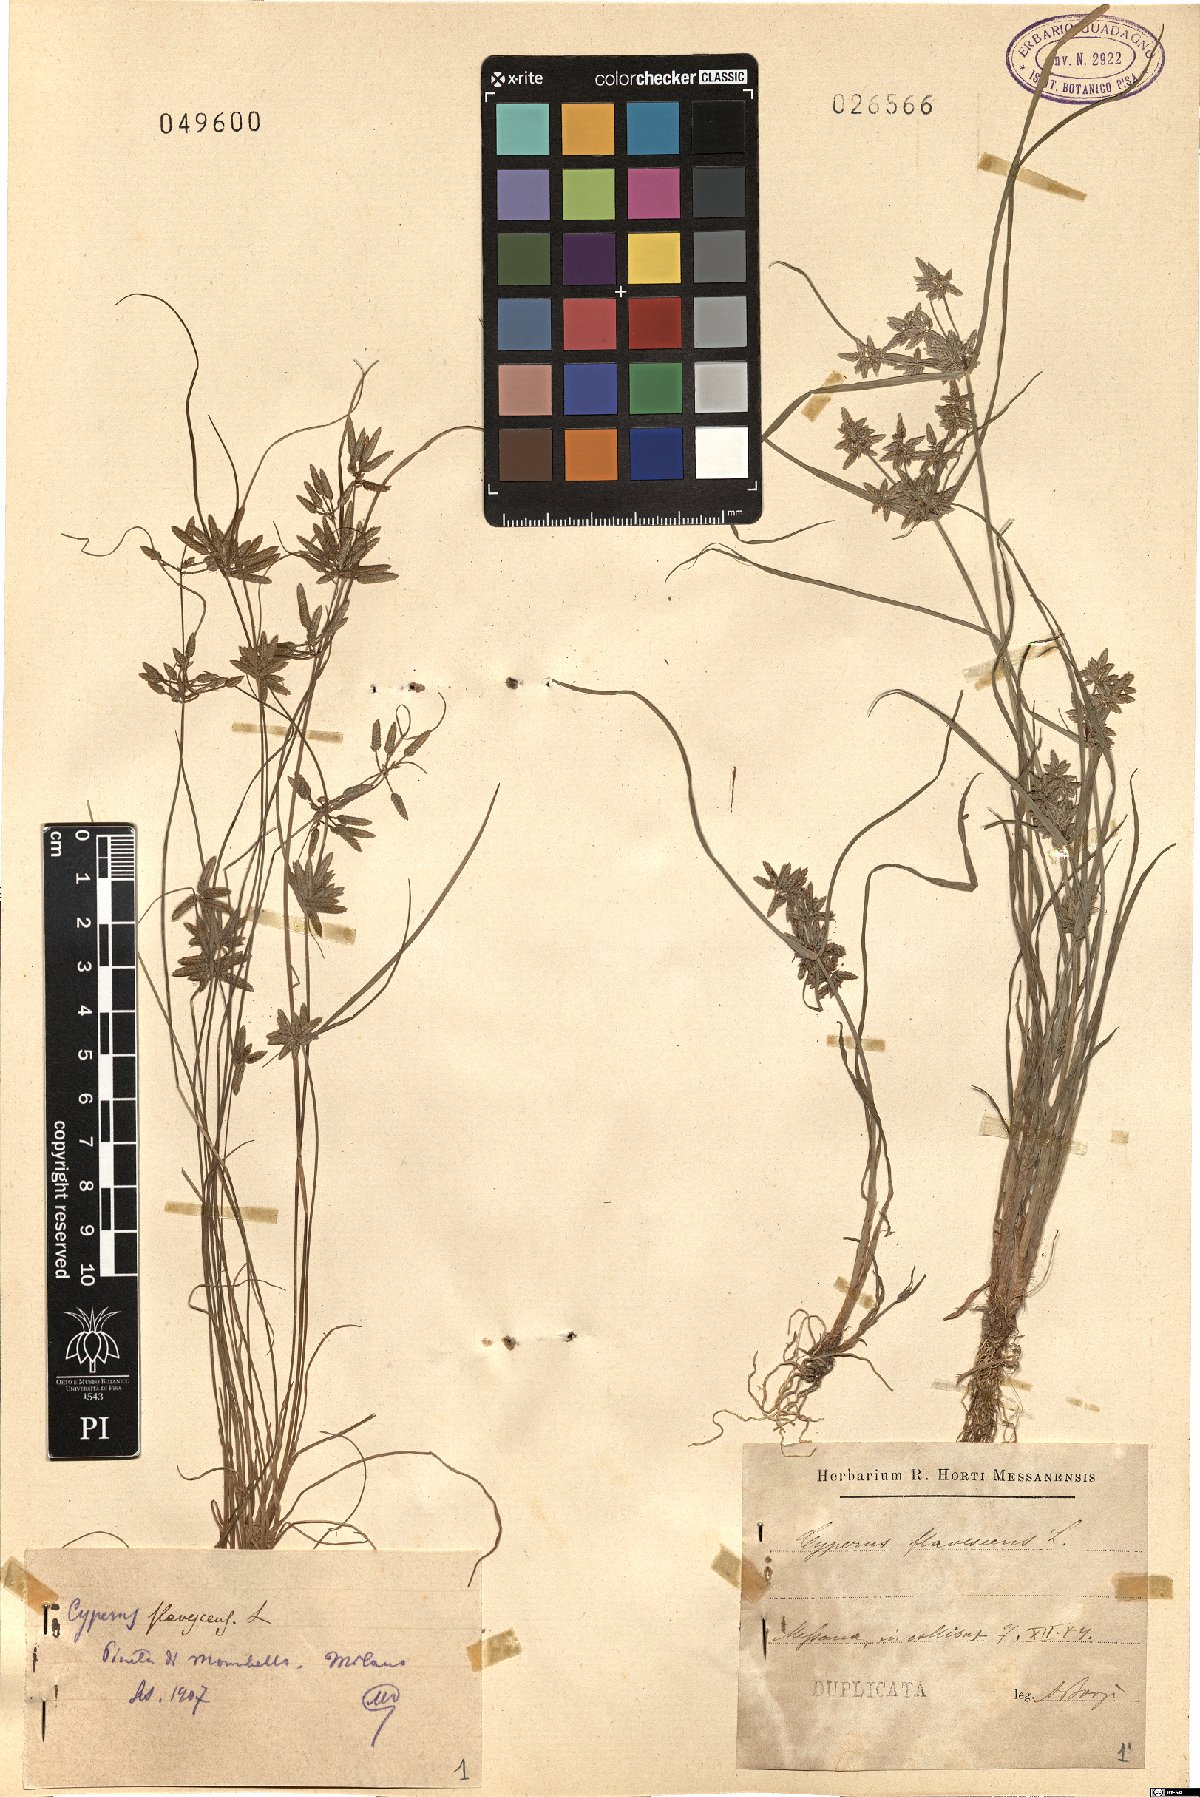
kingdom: Plantae
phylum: Tracheophyta
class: Liliopsida
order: Poales
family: Cyperaceae
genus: Cyperus
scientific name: Cyperus flavescens
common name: Yellow galingale
